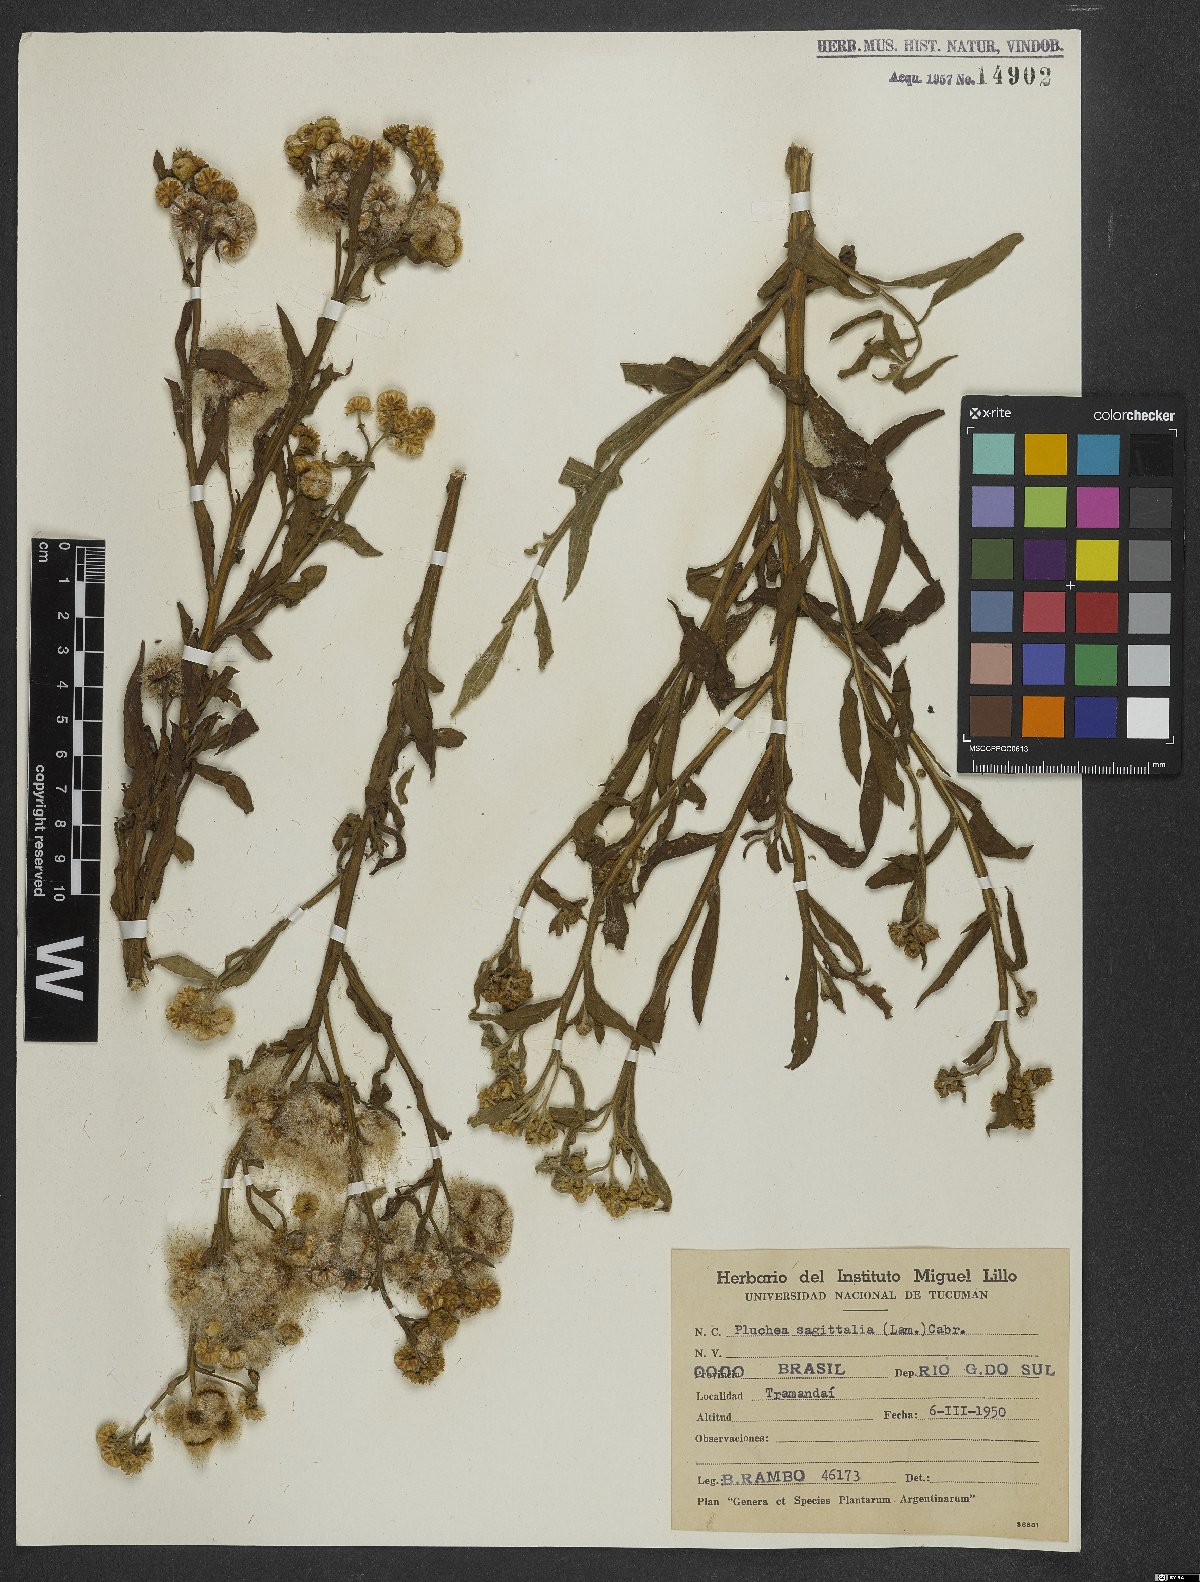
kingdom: Plantae
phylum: Tracheophyta
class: Magnoliopsida
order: Asterales
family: Asteraceae
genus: Pluchea
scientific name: Pluchea sagittalis
